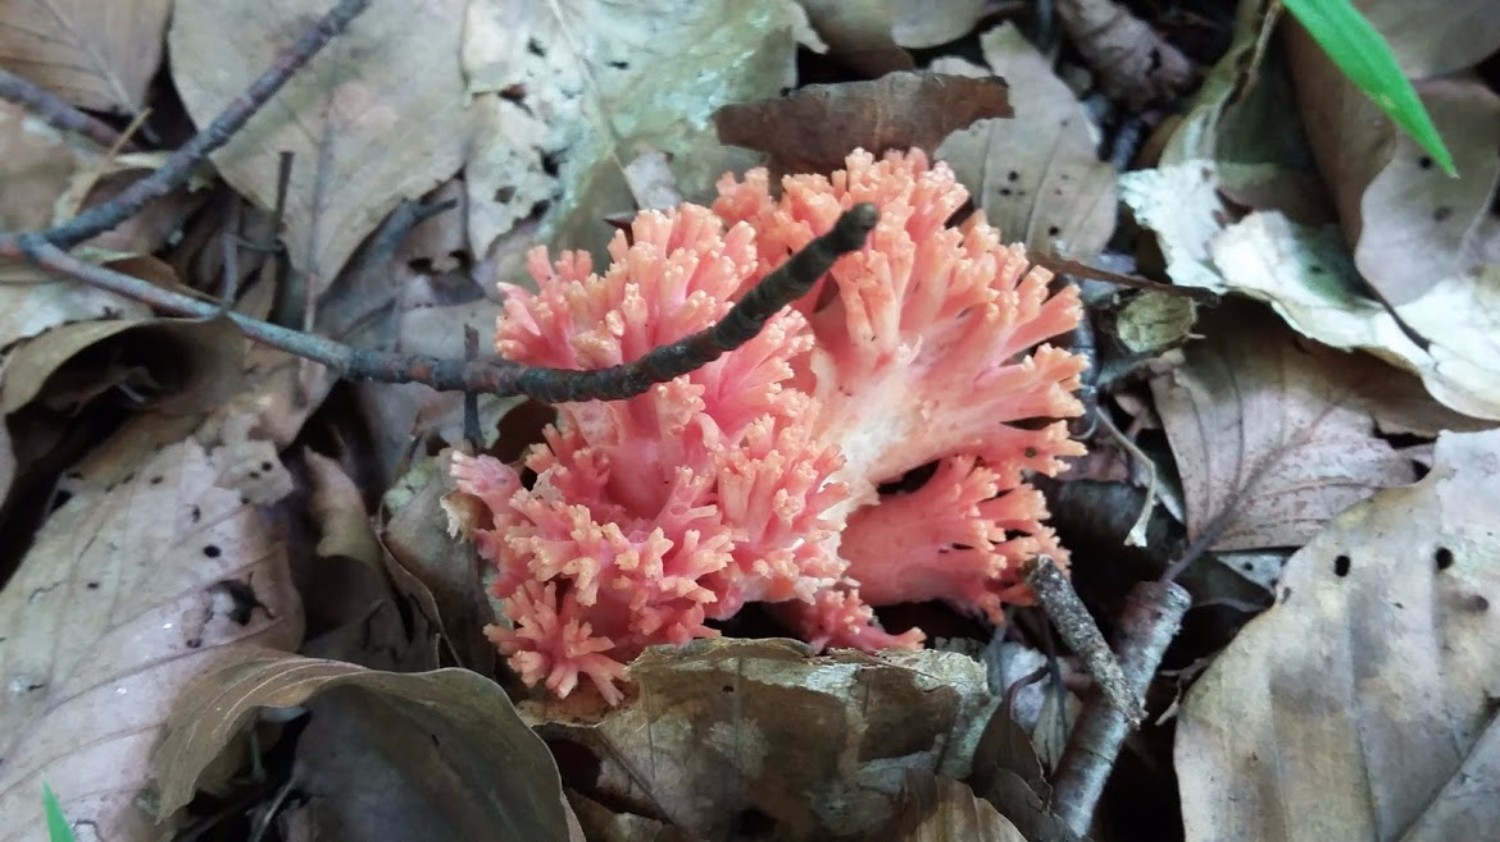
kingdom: Fungi
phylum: Basidiomycota
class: Agaricomycetes
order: Gomphales
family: Gomphaceae
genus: Ramaria
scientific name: Ramaria fagetorum
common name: abrikos-koralsvamp
